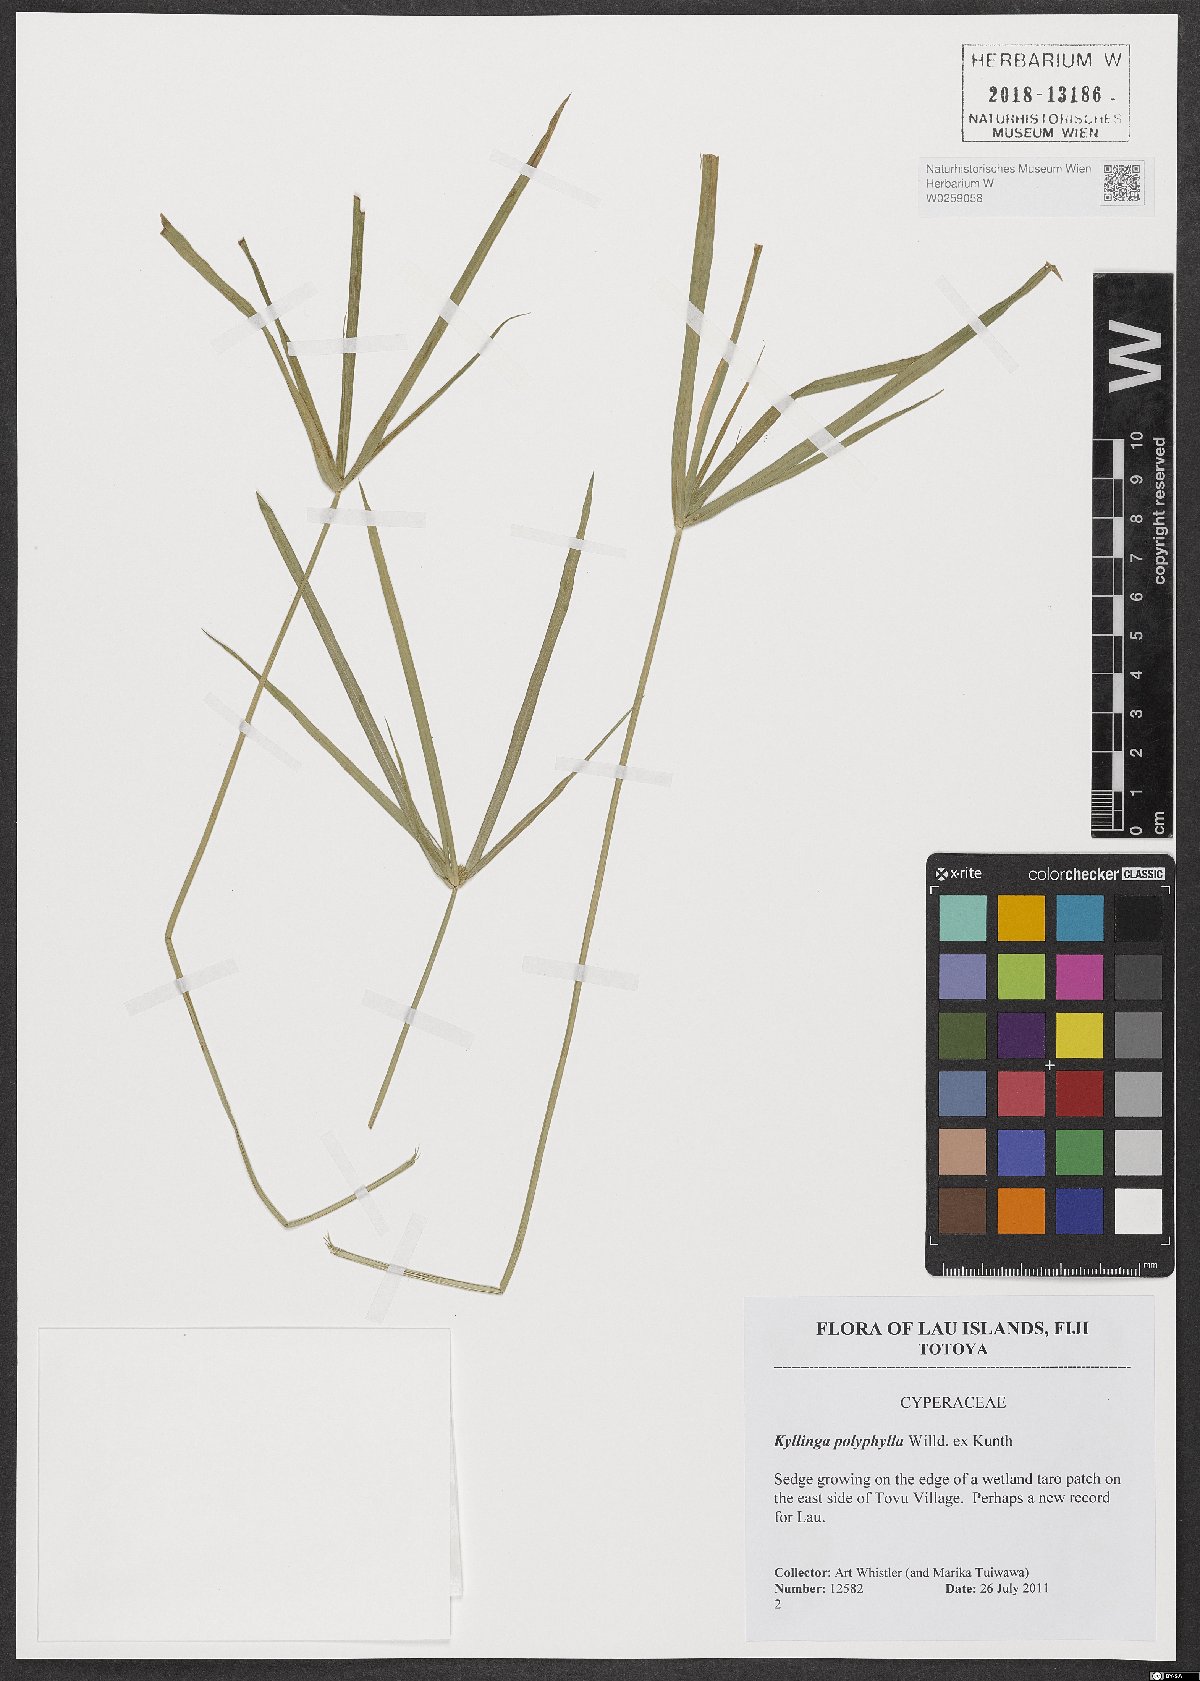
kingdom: Plantae
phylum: Tracheophyta
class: Liliopsida
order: Poales
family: Cyperaceae
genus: Cyperus
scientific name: Cyperus aromaticus
